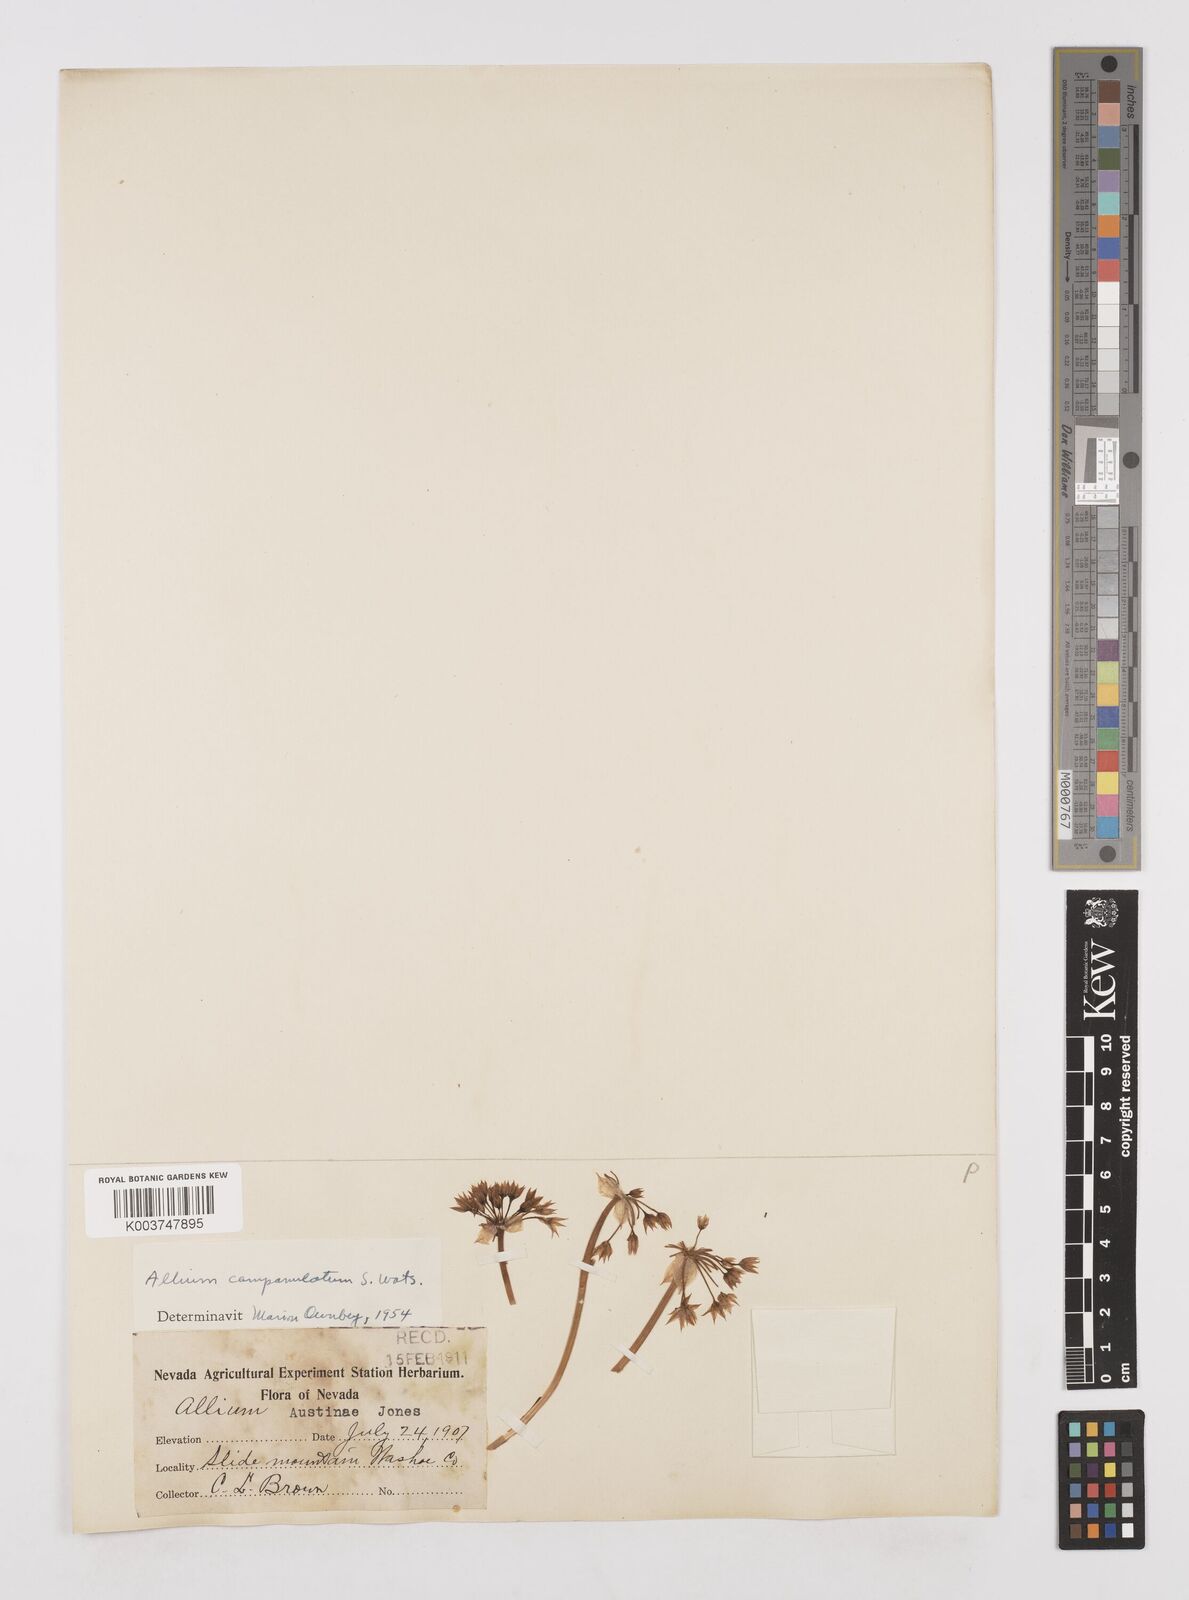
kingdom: Plantae
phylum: Tracheophyta
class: Liliopsida
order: Asparagales
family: Amaryllidaceae
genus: Allium
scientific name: Allium campanulatum
